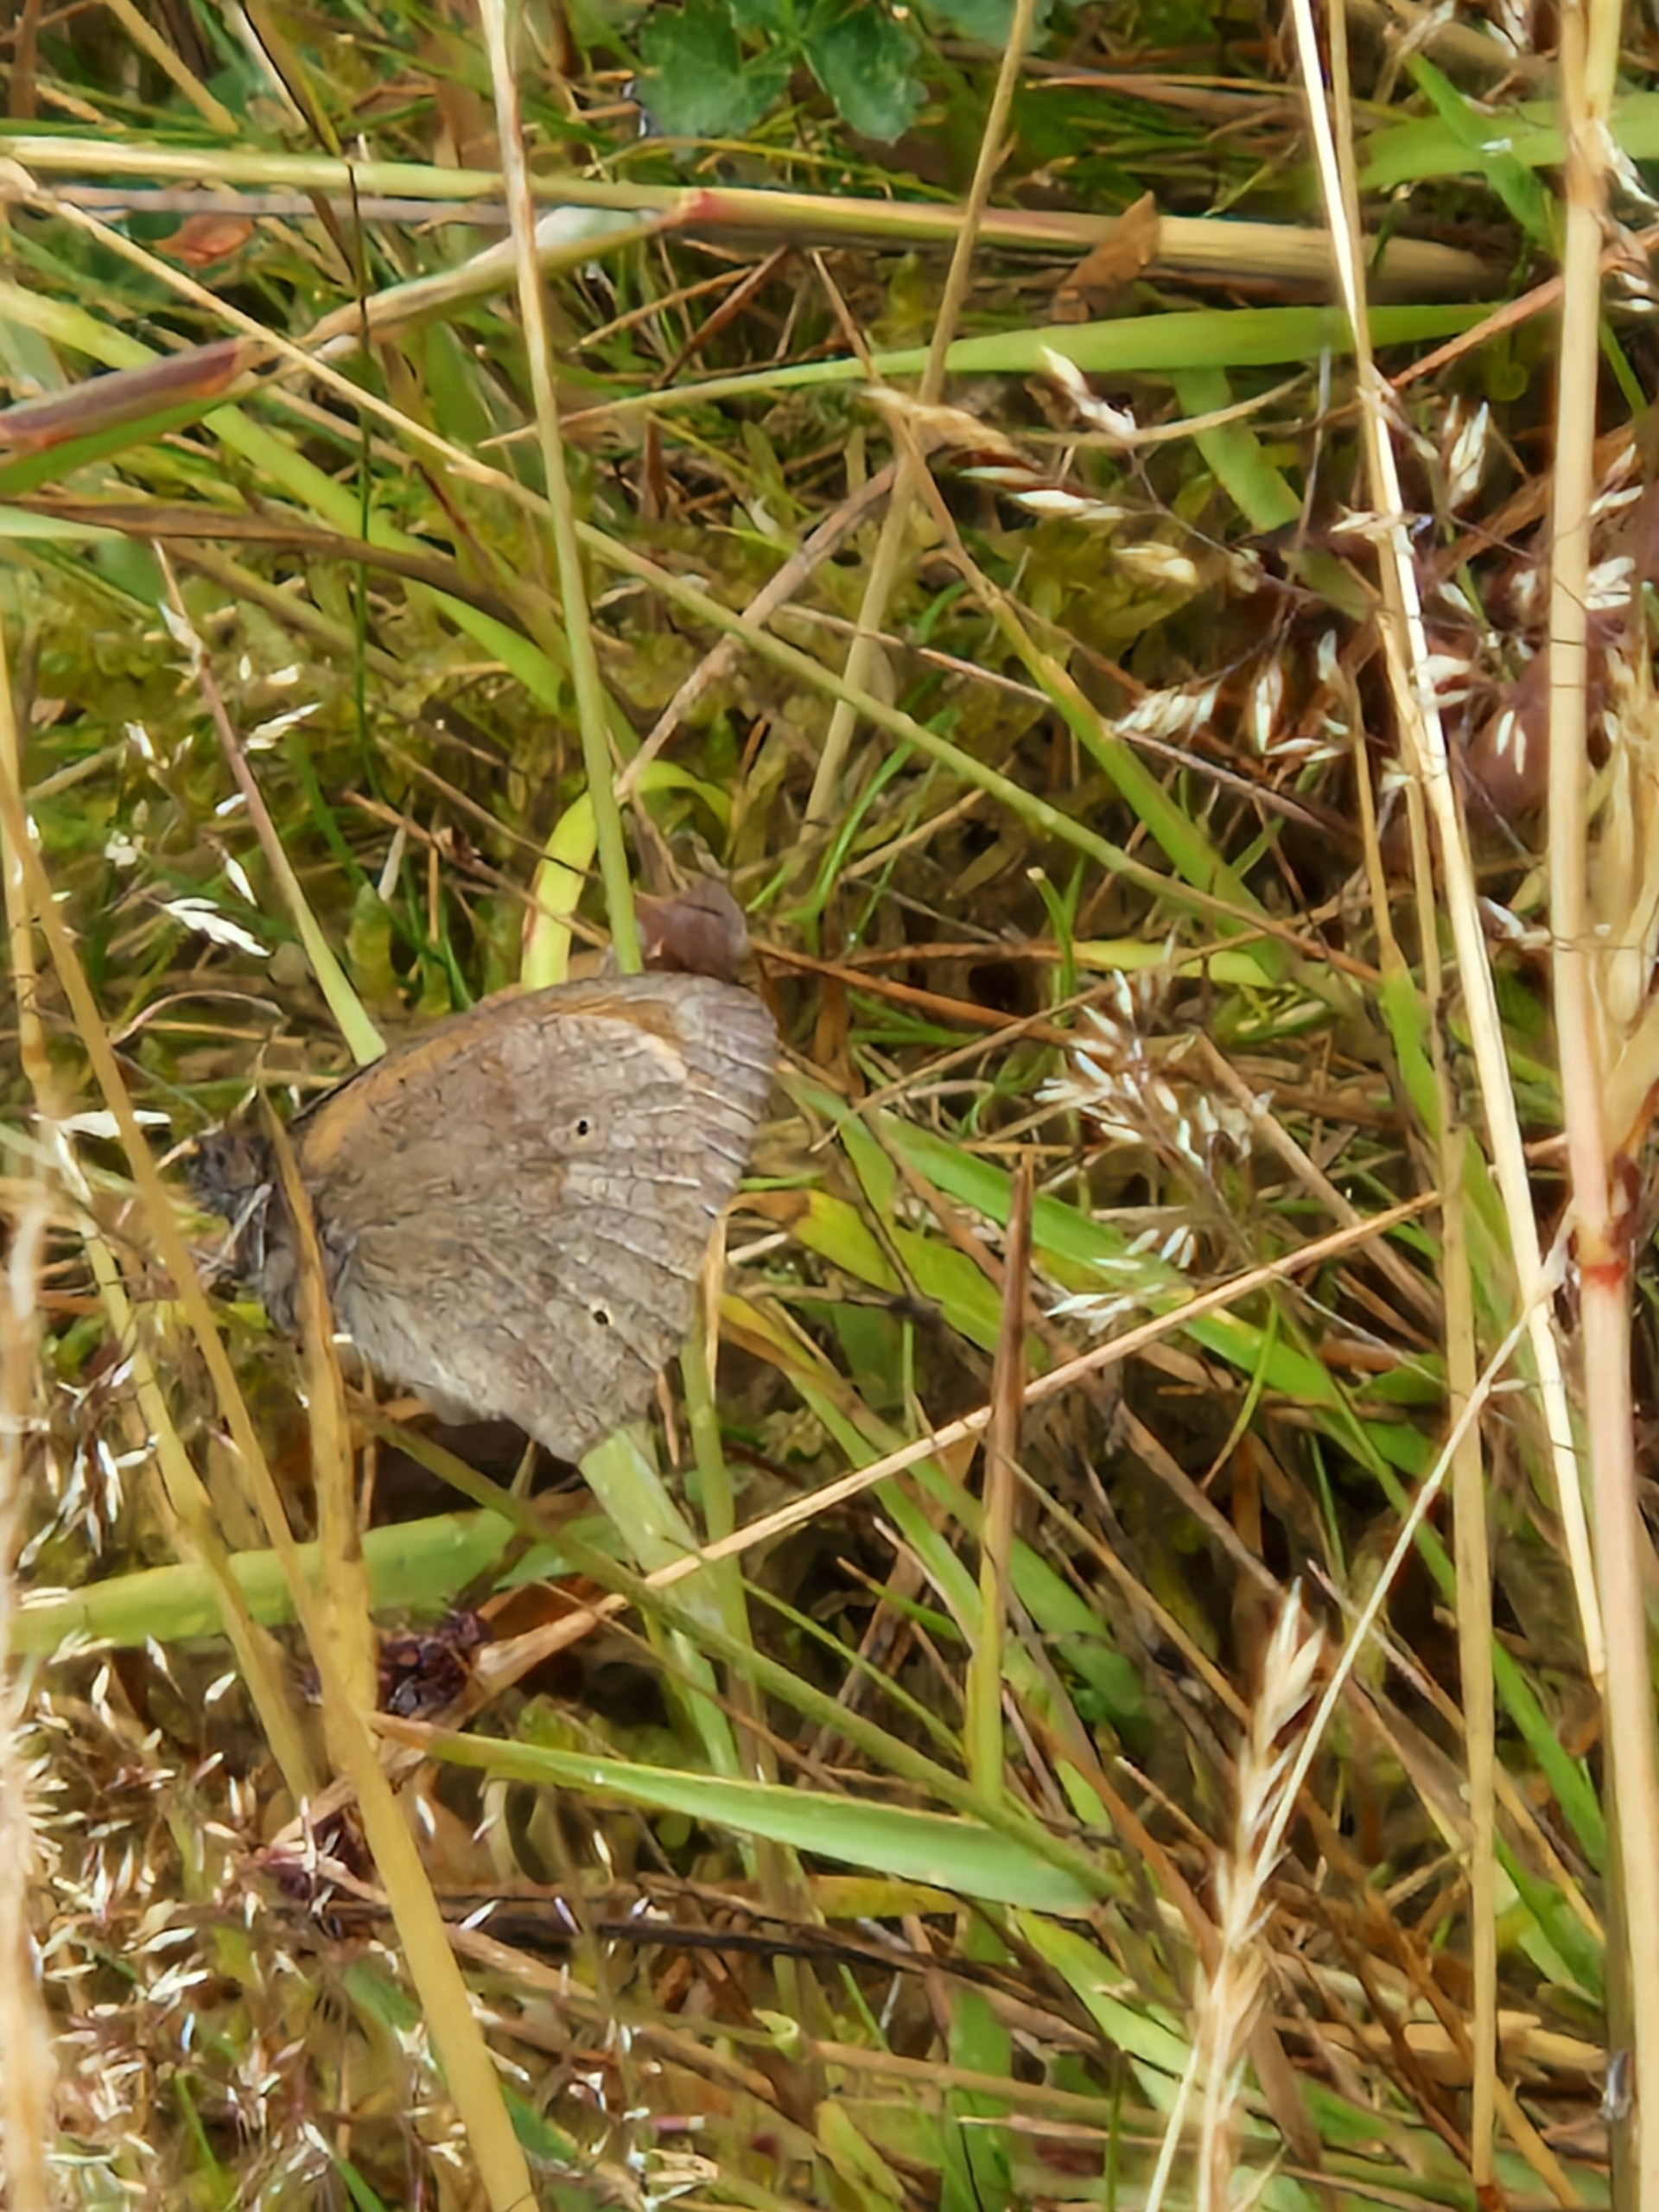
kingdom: Animalia
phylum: Arthropoda
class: Insecta
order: Lepidoptera
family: Nymphalidae
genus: Maniola
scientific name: Maniola jurtina
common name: Græsrandøje
